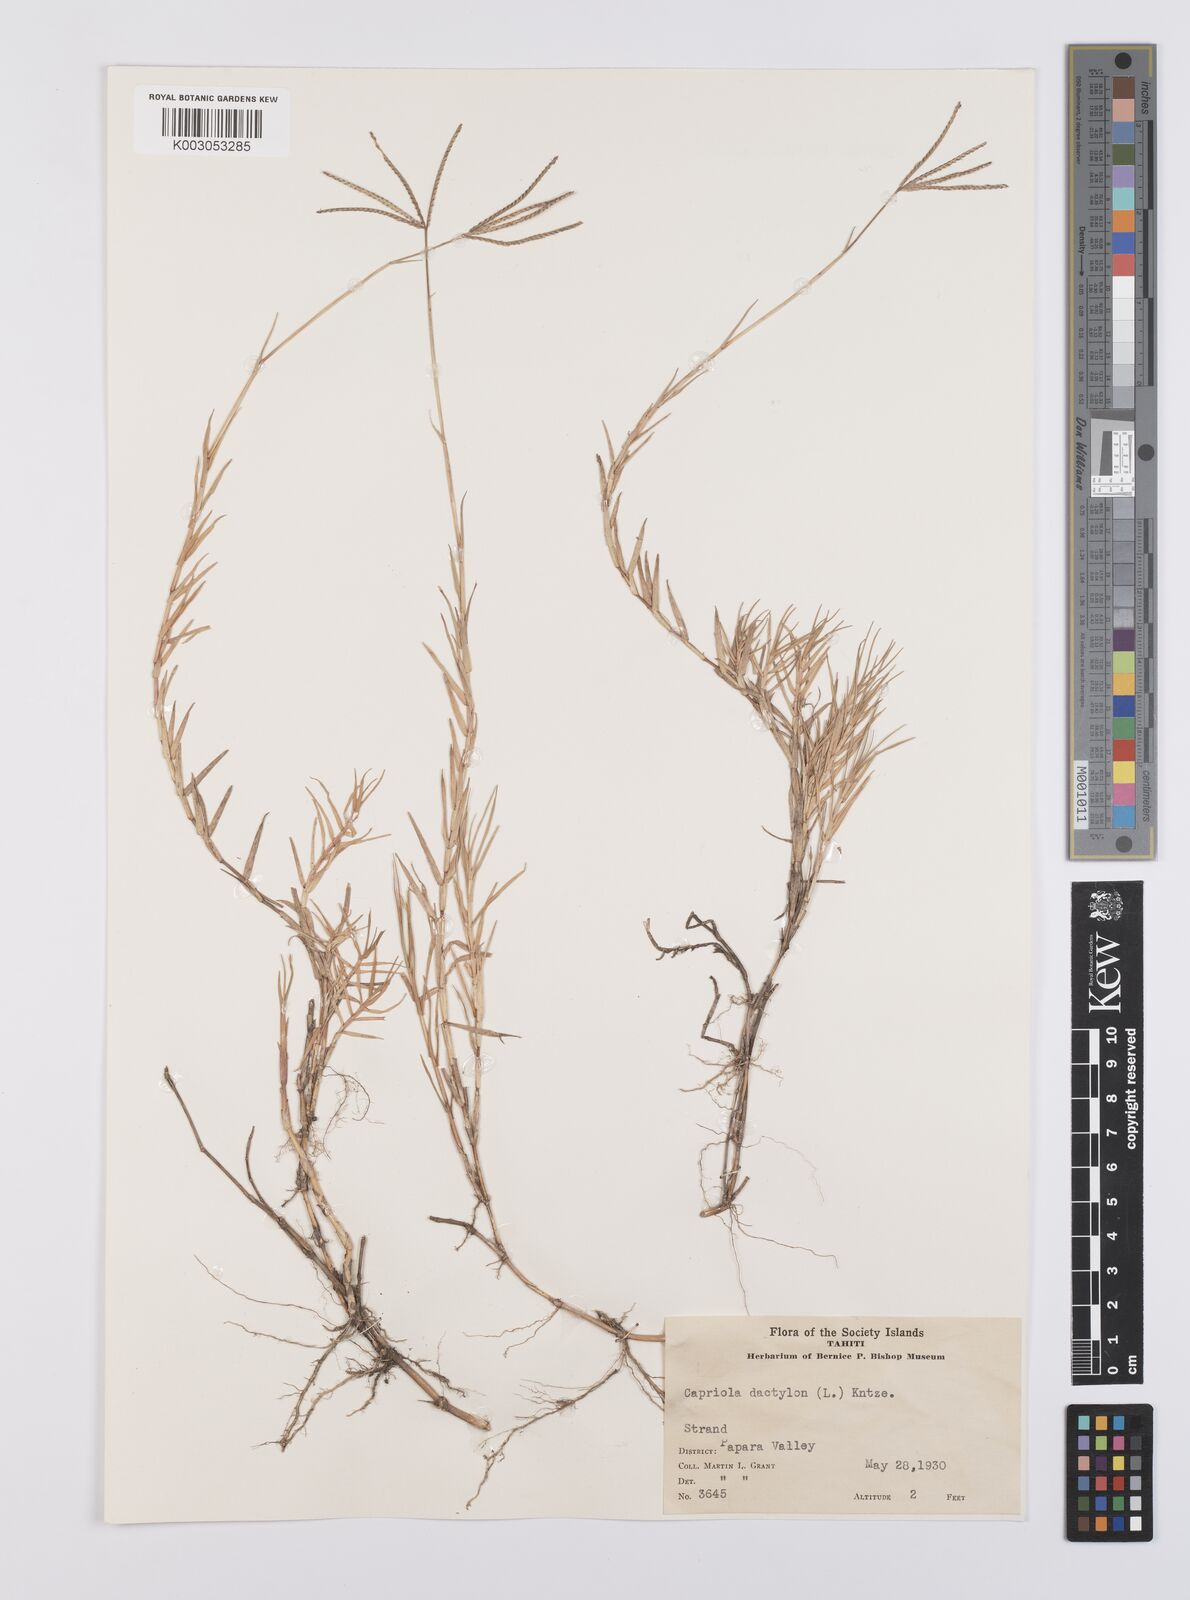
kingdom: Plantae
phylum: Tracheophyta
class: Liliopsida
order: Poales
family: Poaceae
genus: Cynodon
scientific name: Cynodon dactylon
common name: Bermuda grass
